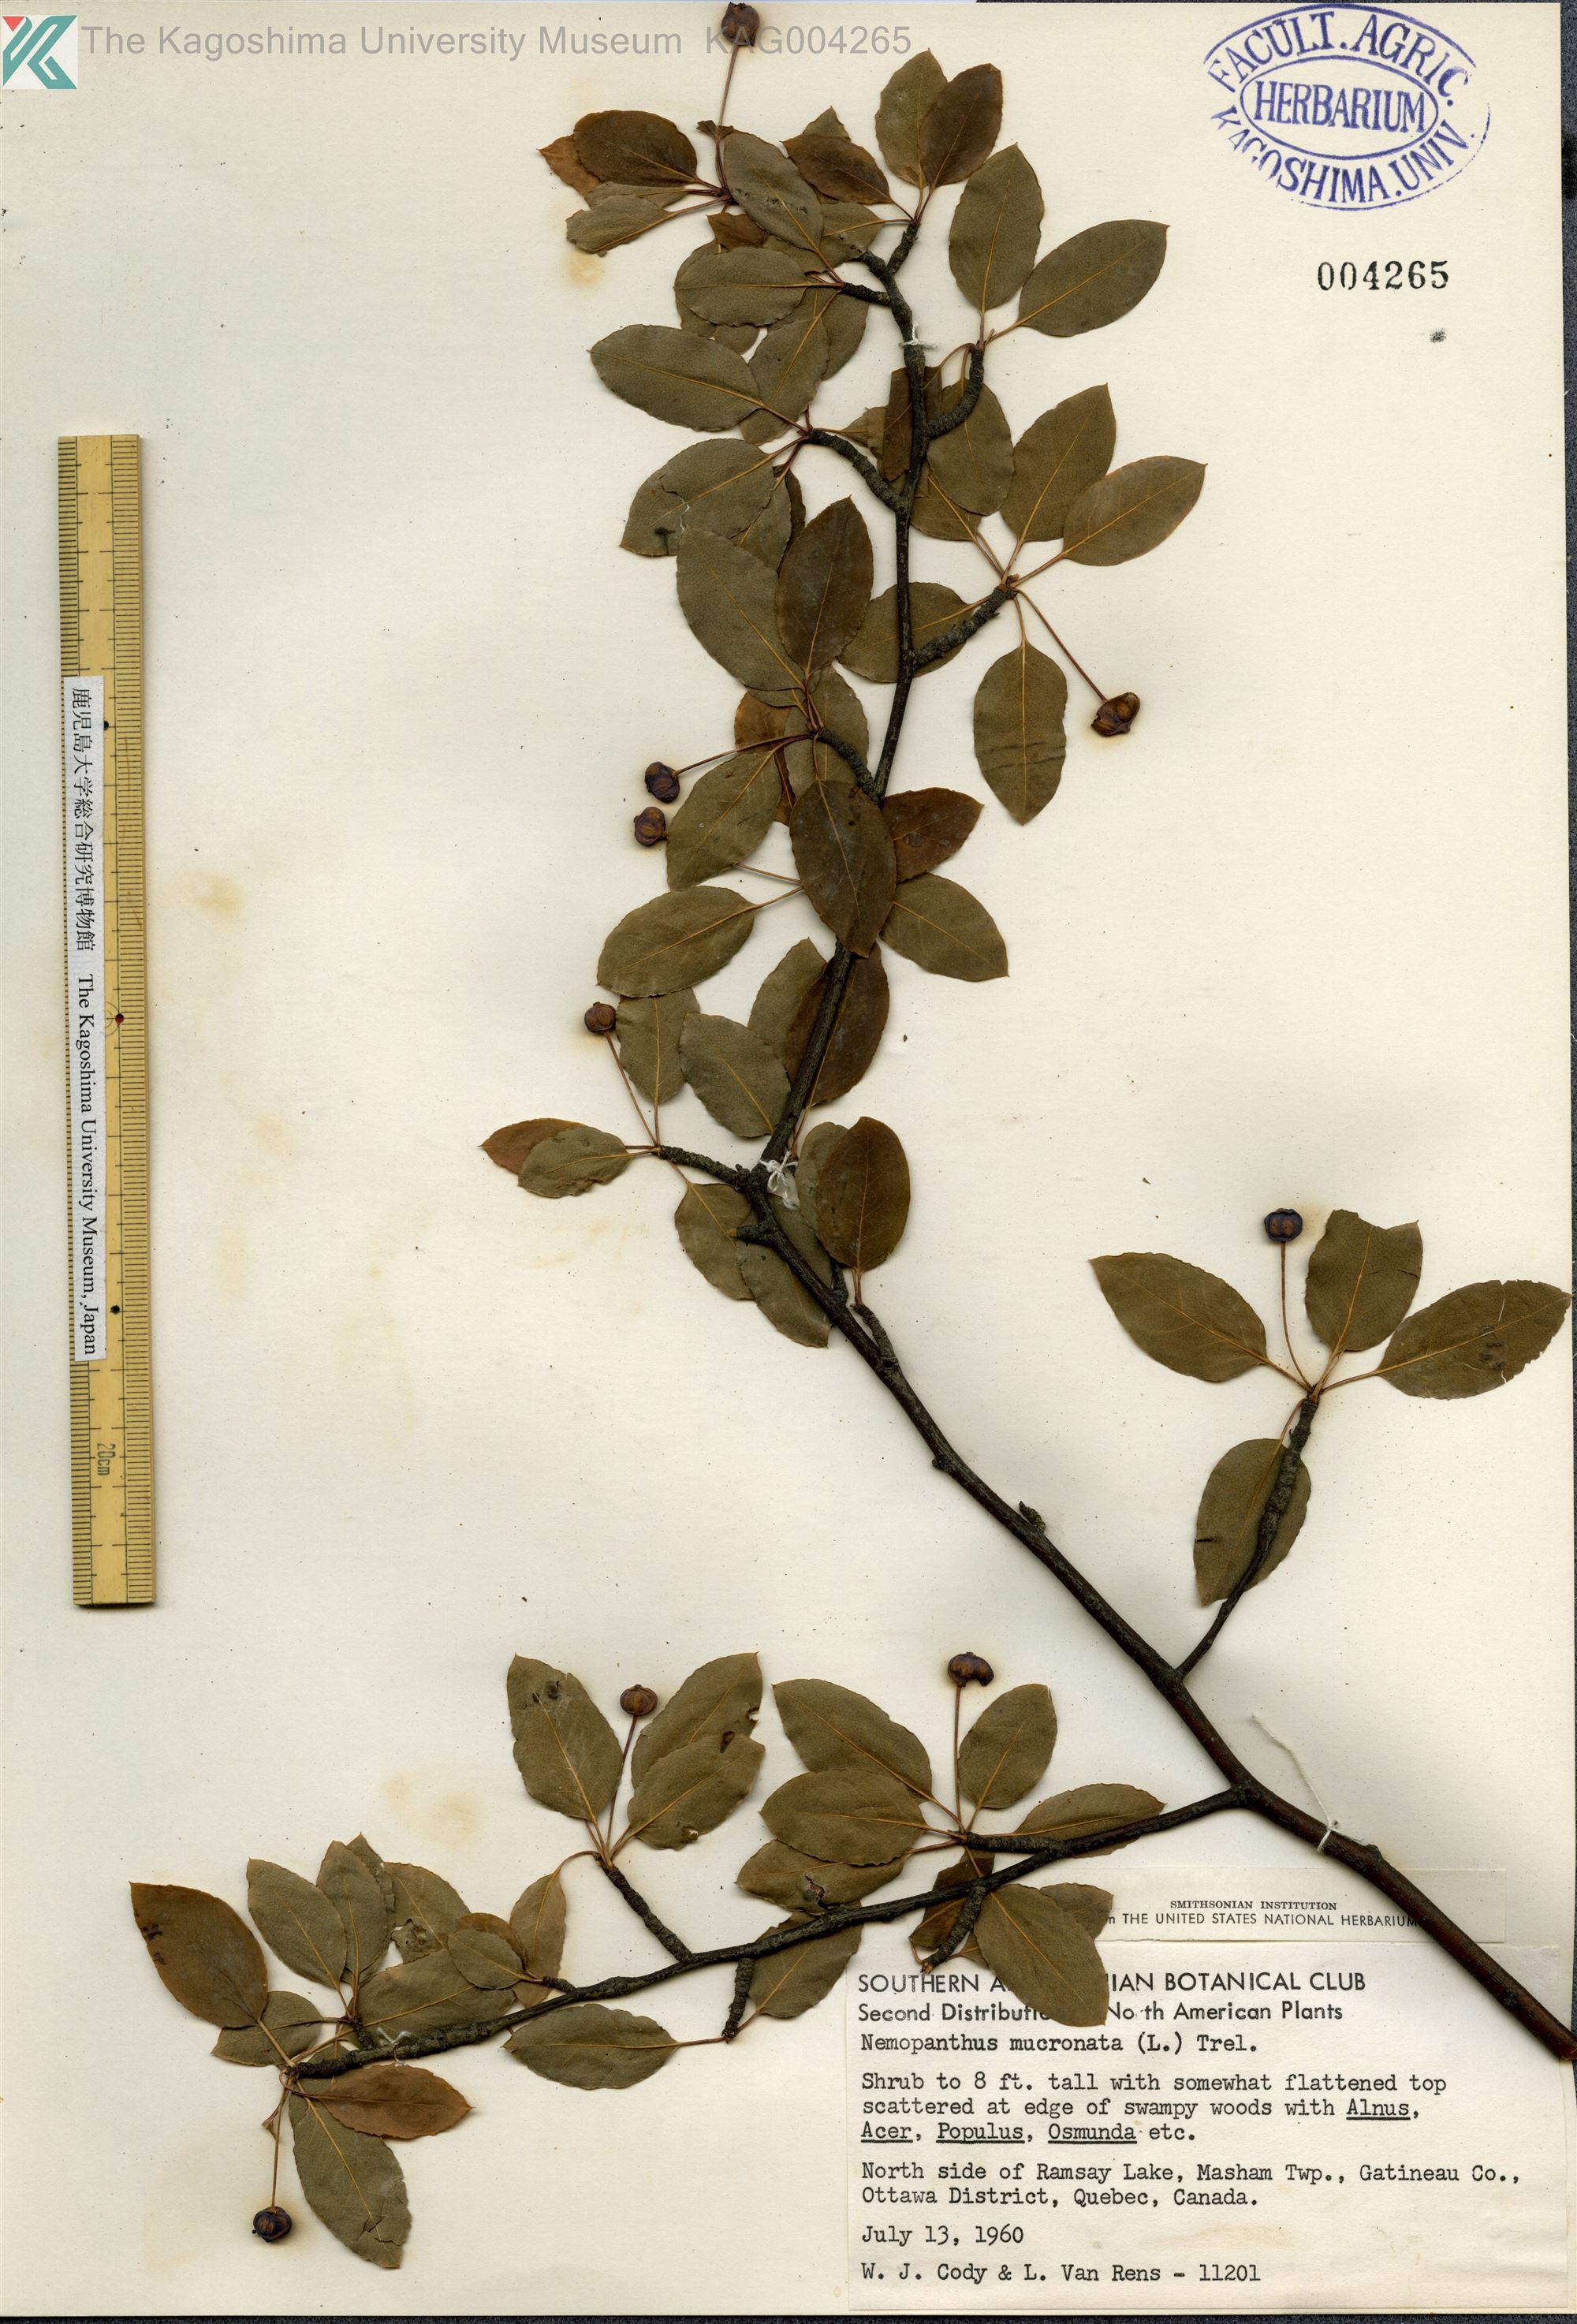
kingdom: Plantae
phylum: Tracheophyta
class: Magnoliopsida
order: Aquifoliales
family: Aquifoliaceae
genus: Ilex
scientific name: Ilex mucronata
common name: Catberry
